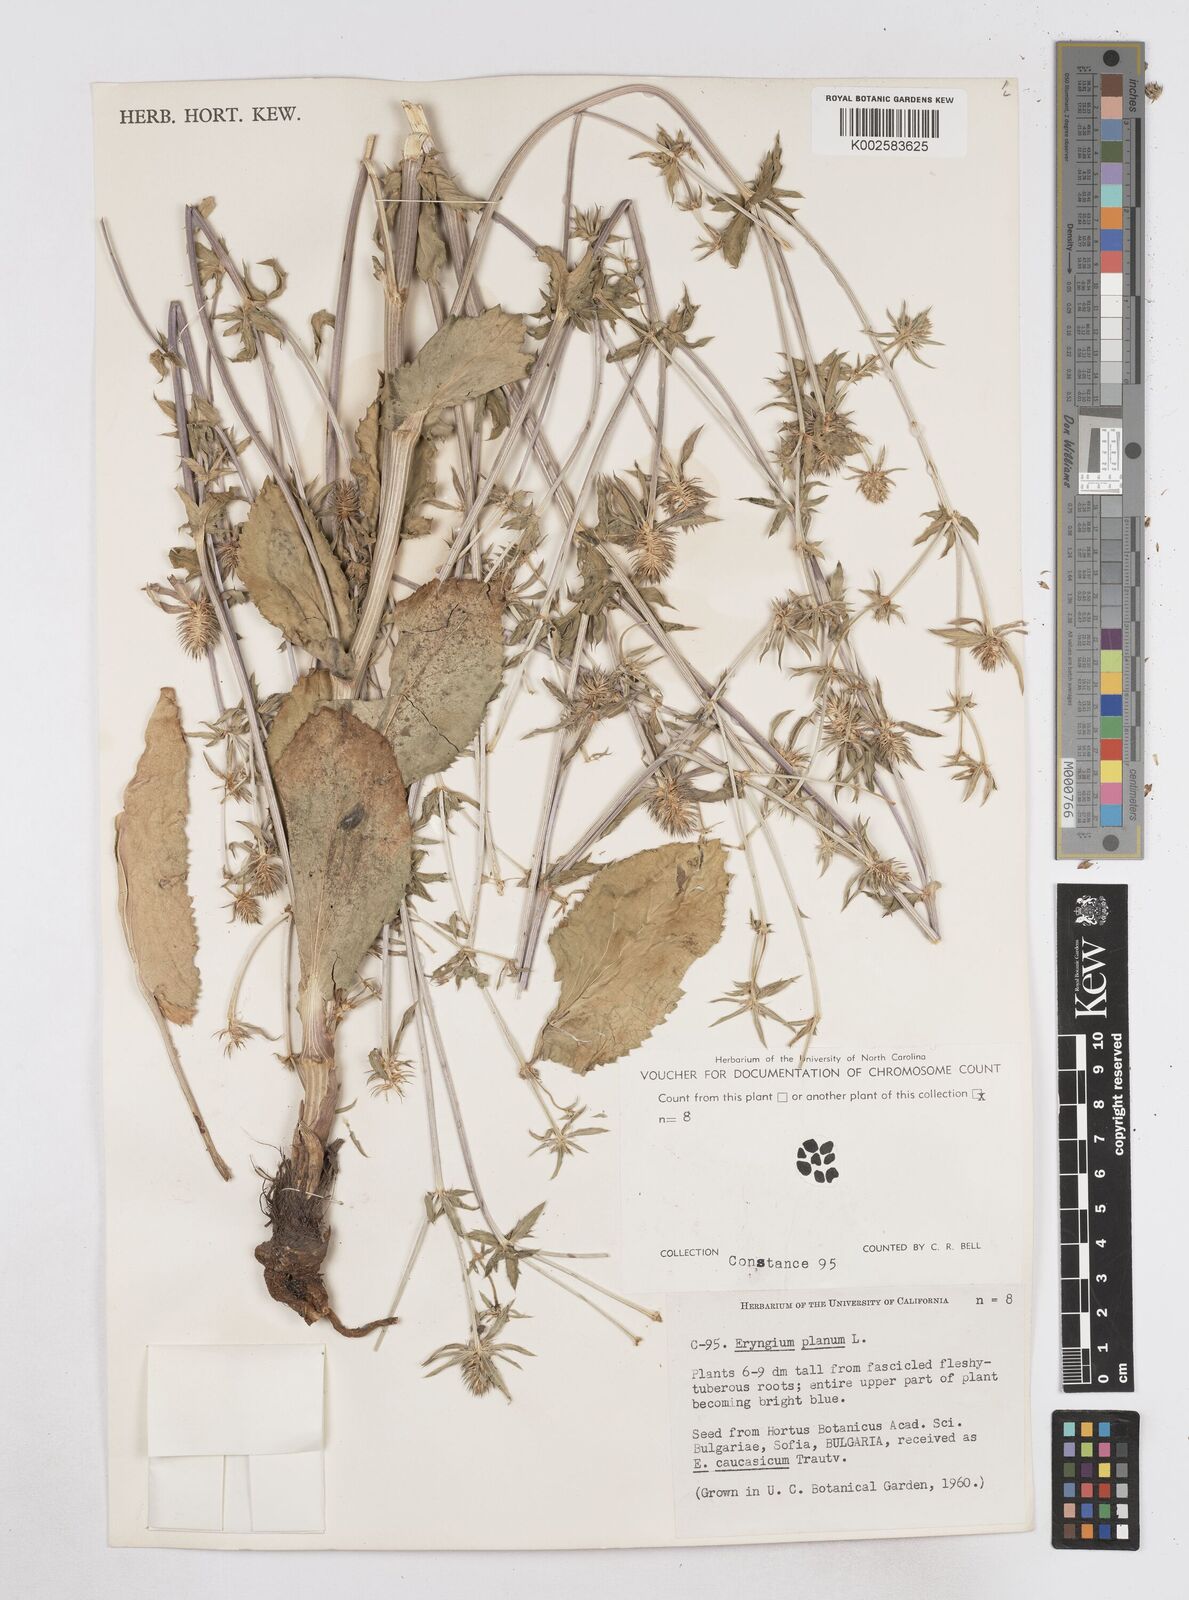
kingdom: Plantae
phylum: Tracheophyta
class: Magnoliopsida
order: Apiales
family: Apiaceae
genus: Eryngium
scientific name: Eryngium planum
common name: Blue eryngo
